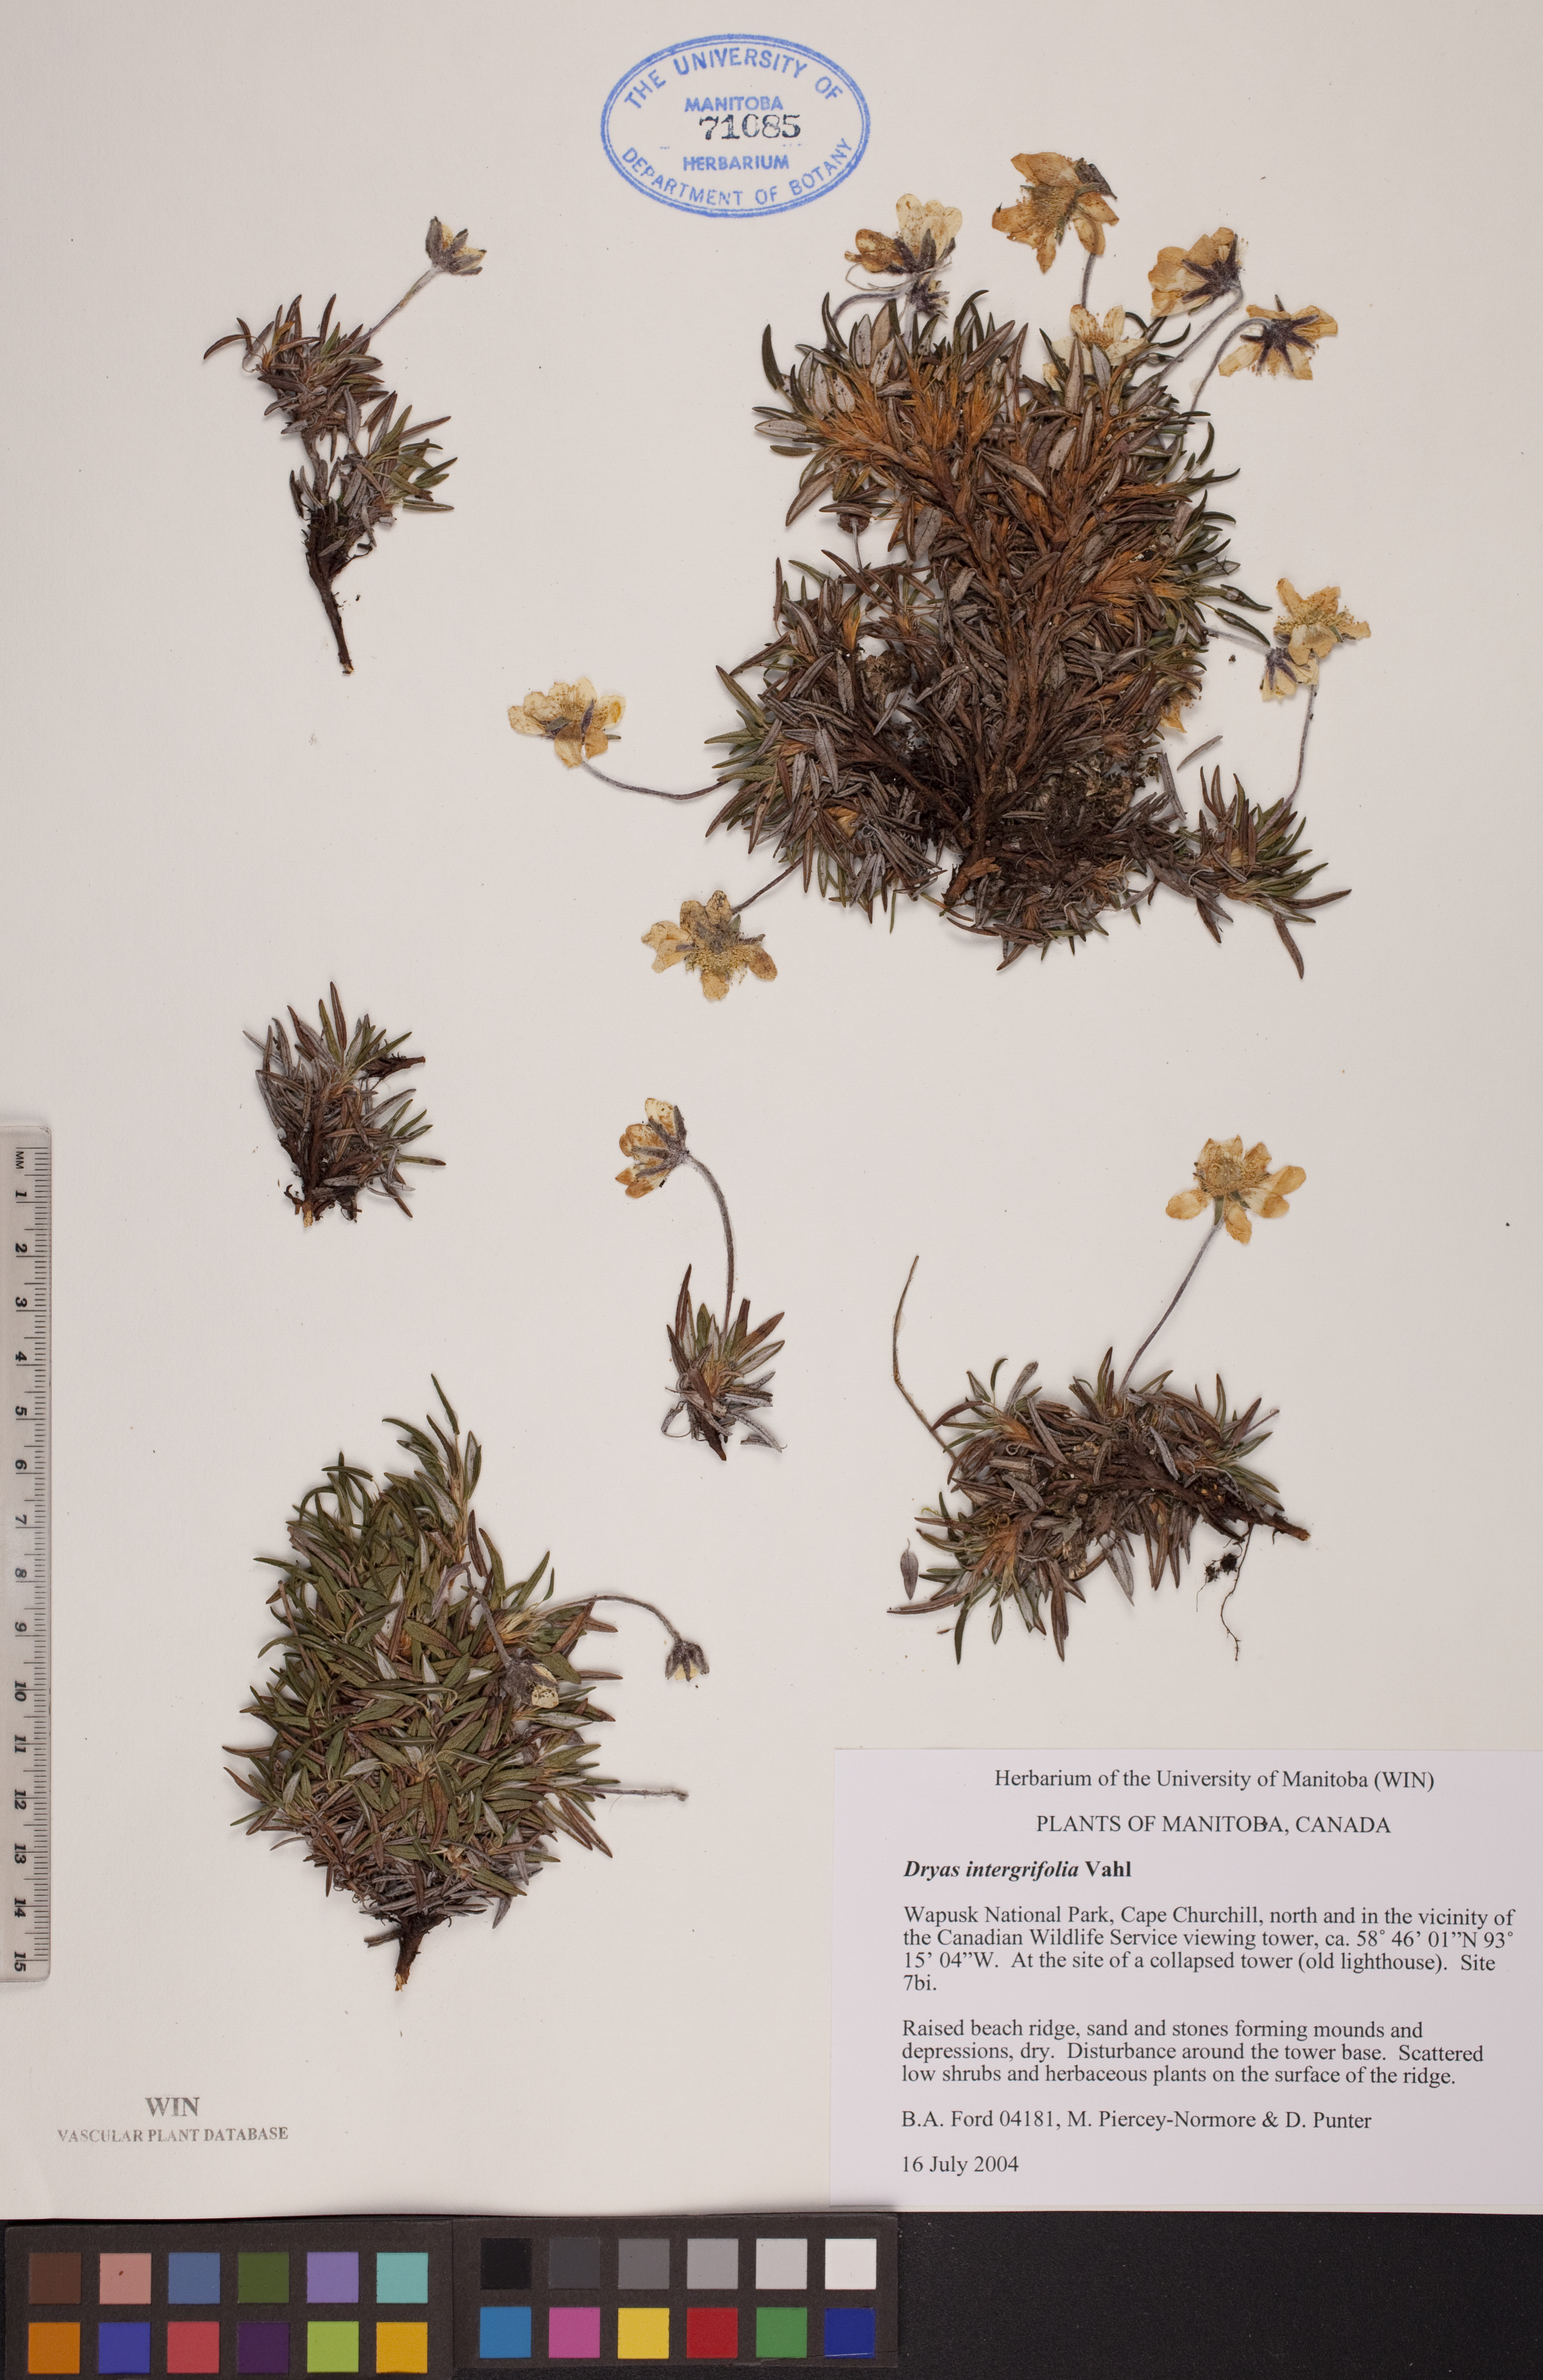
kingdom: Plantae
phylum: Tracheophyta
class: Magnoliopsida
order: Rosales
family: Rosaceae
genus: Dryas
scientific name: Dryas integrifolia
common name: Entire-leaved mountain avens
